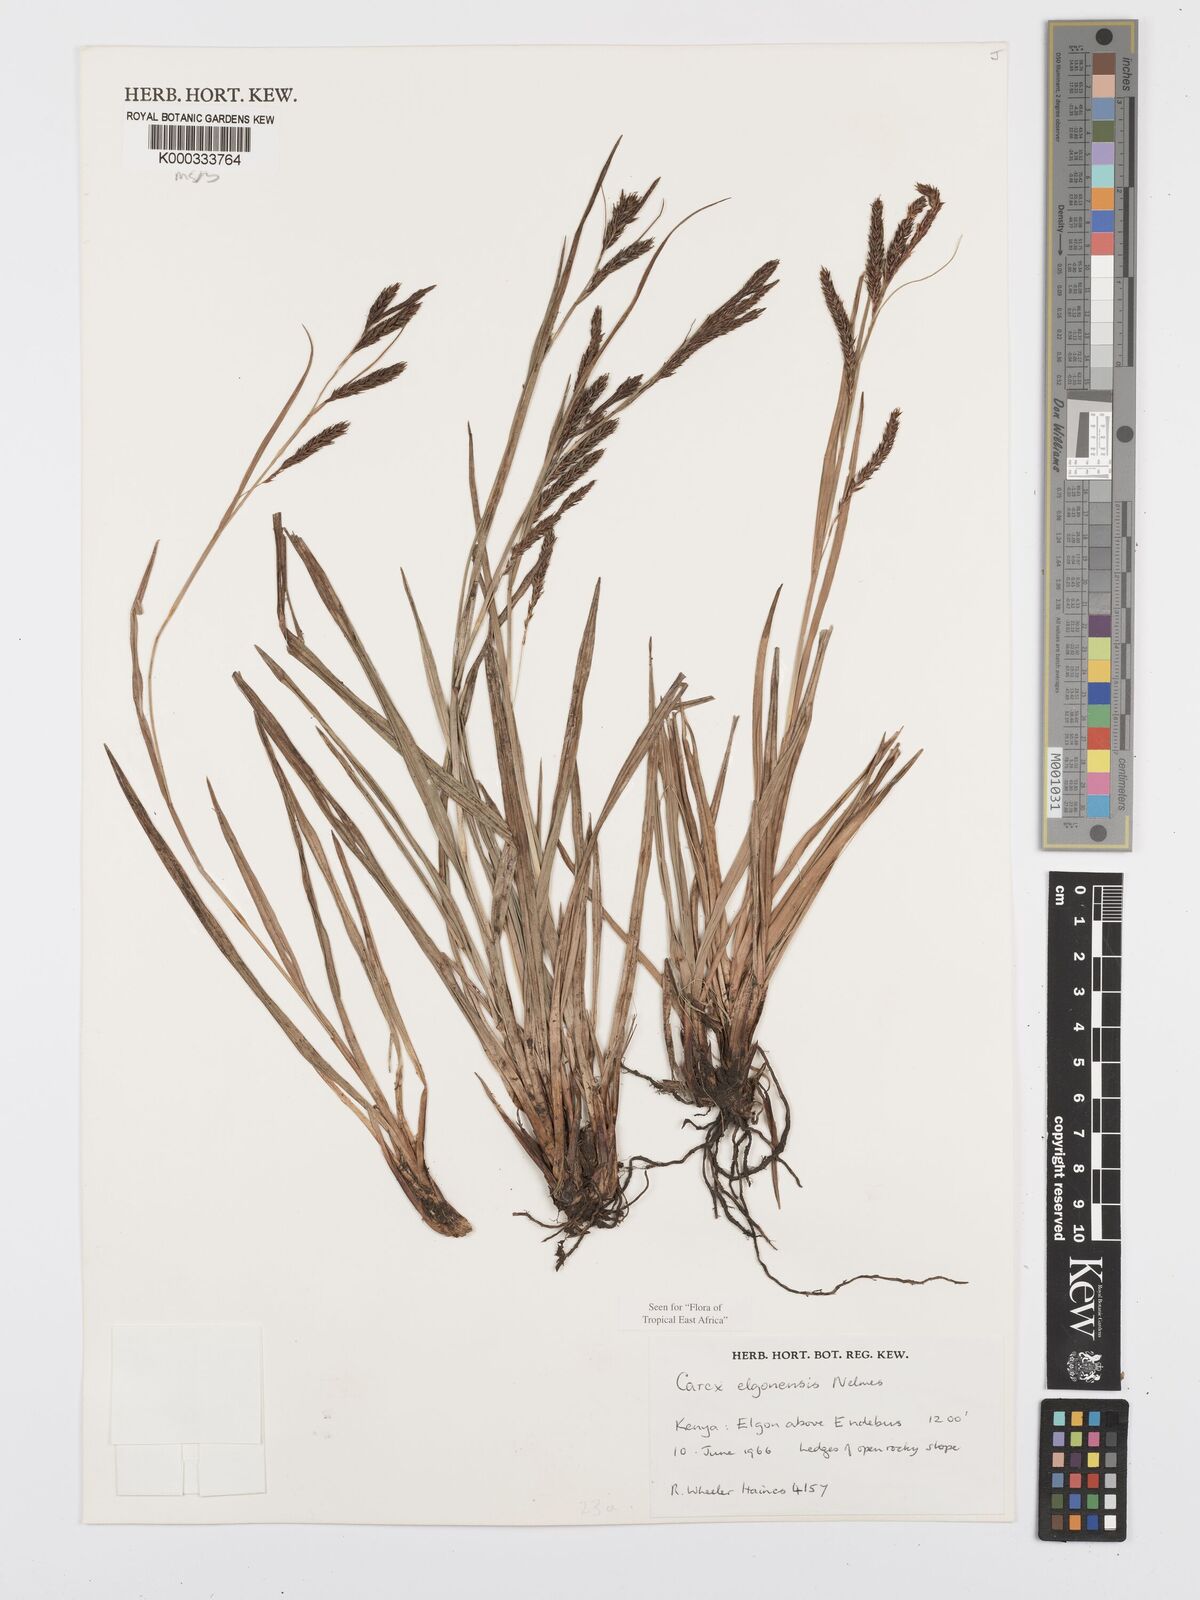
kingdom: Plantae
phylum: Tracheophyta
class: Liliopsida
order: Poales
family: Cyperaceae
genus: Carex
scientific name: Carex elgonensis
